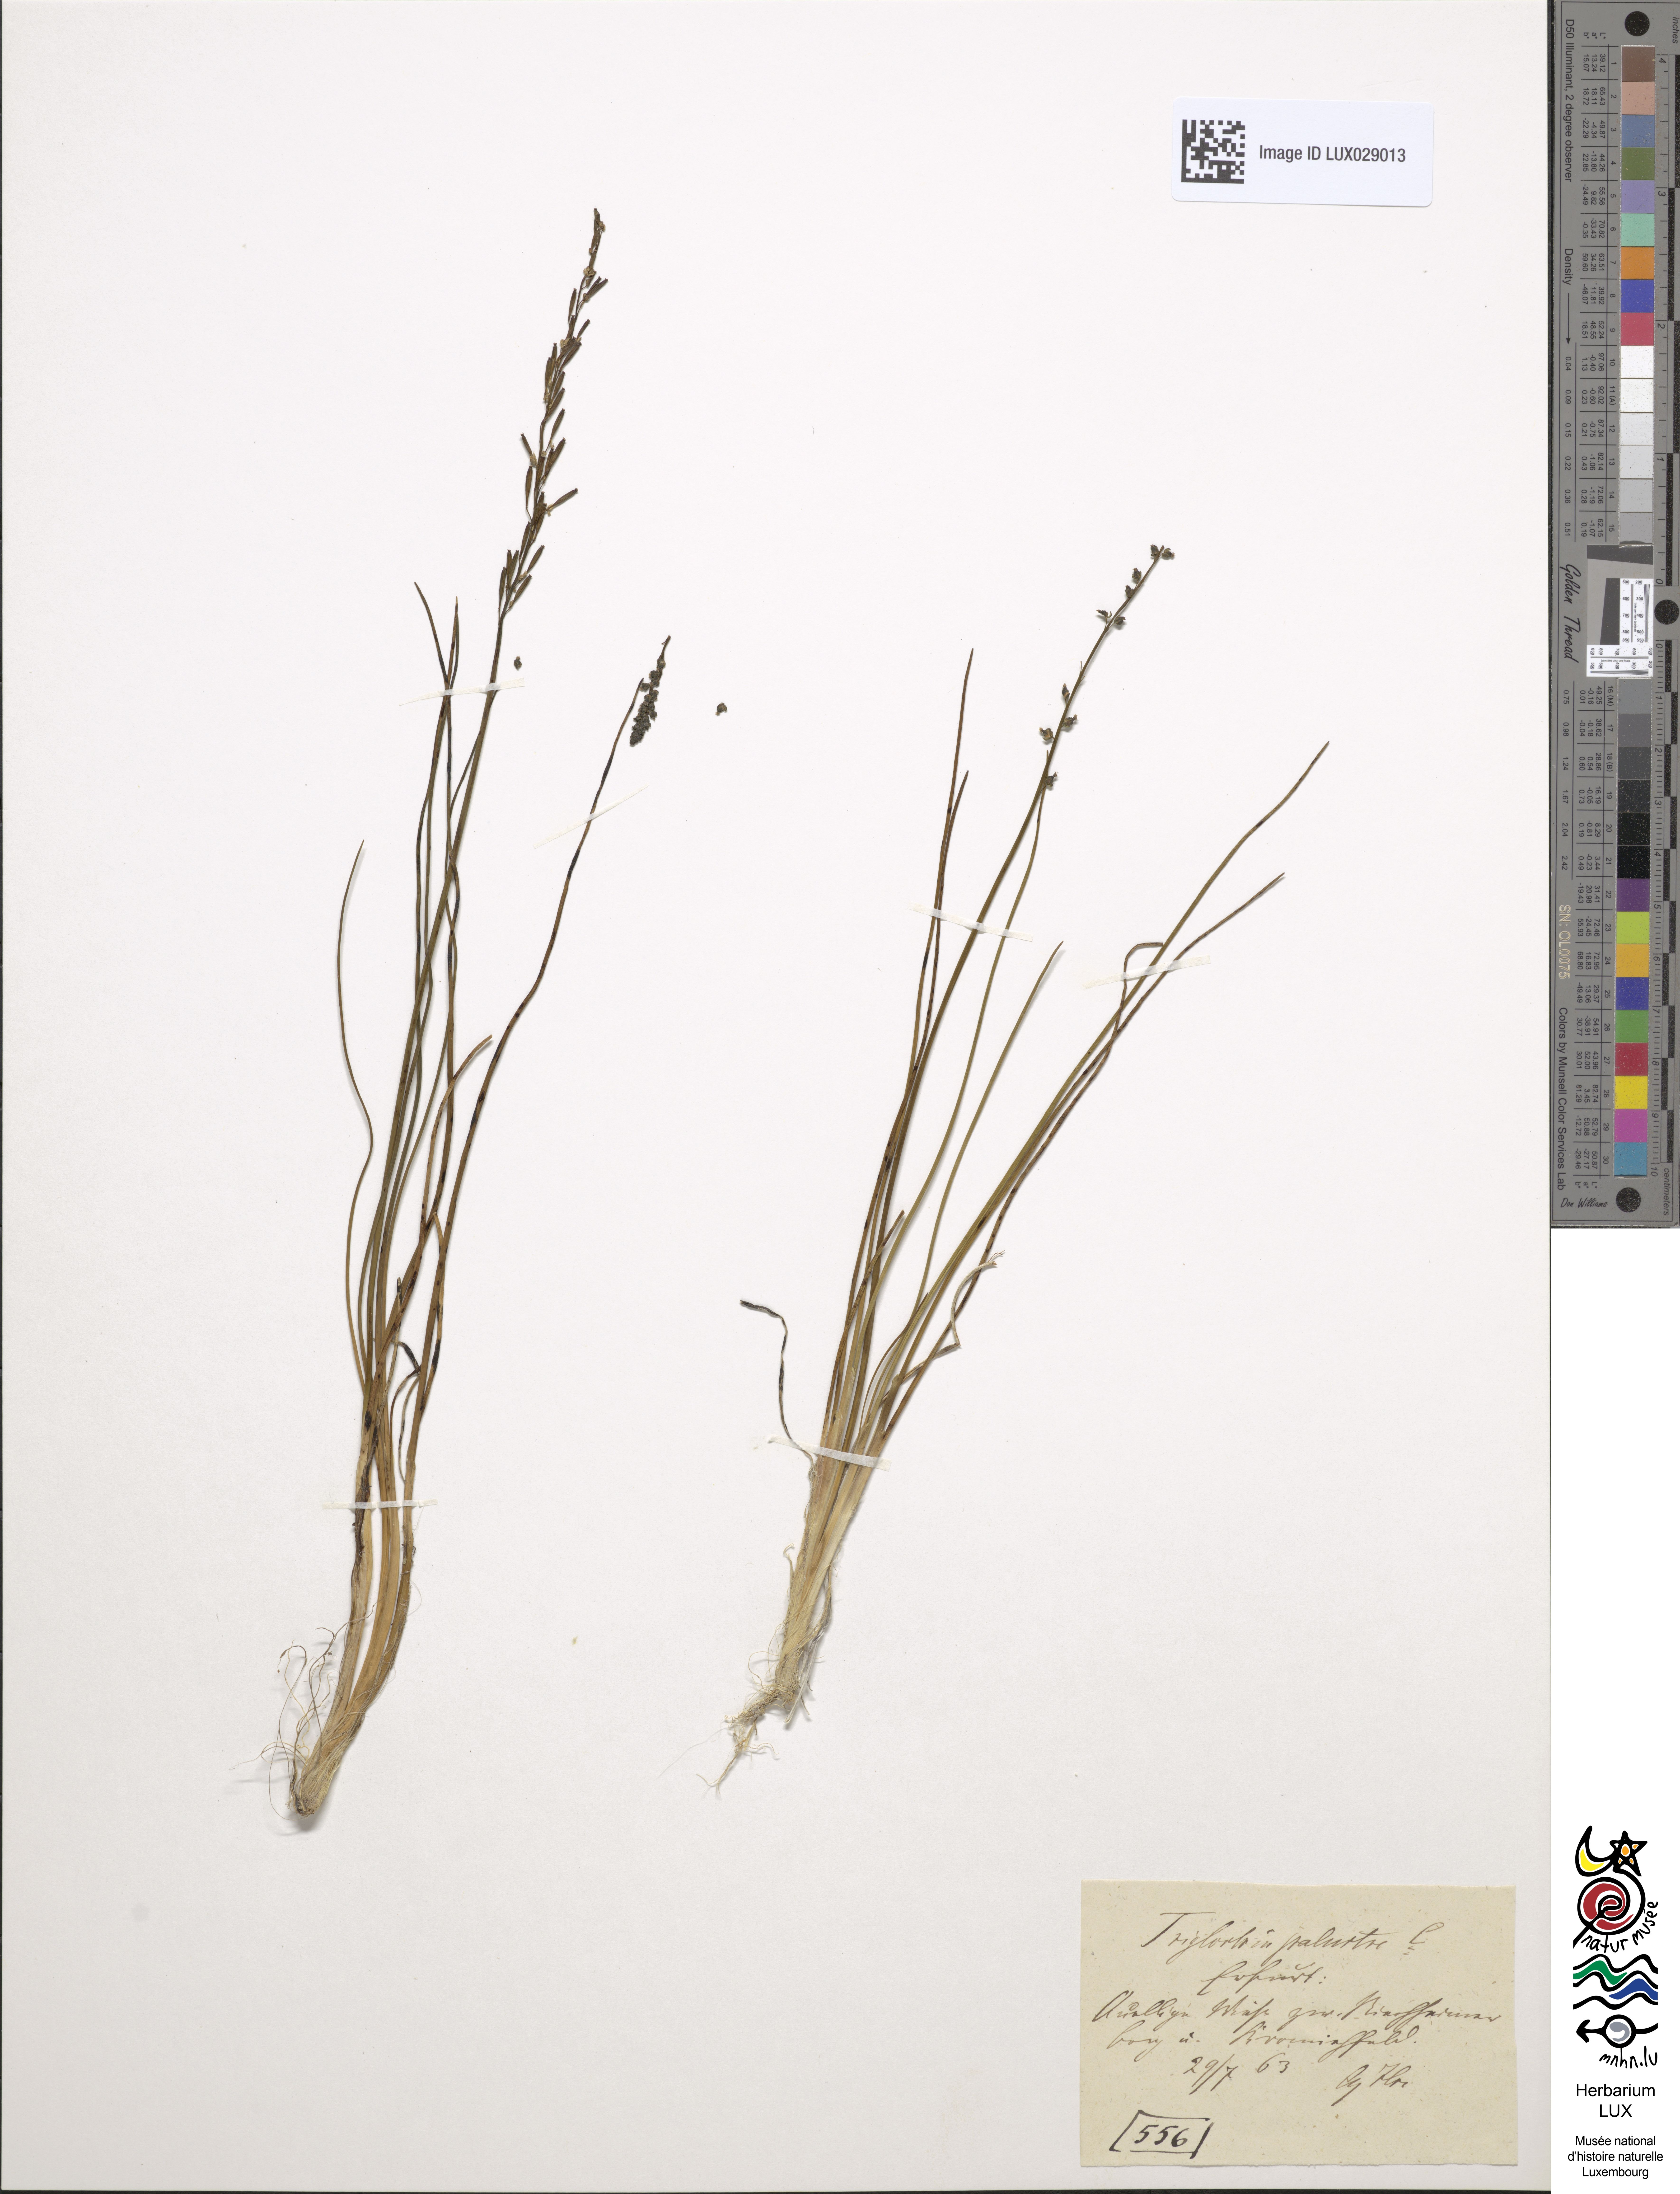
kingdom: Plantae
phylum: Tracheophyta
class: Liliopsida
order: Alismatales
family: Juncaginaceae
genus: Triglochin
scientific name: Triglochin palustris
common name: Marsh arrowgrass
